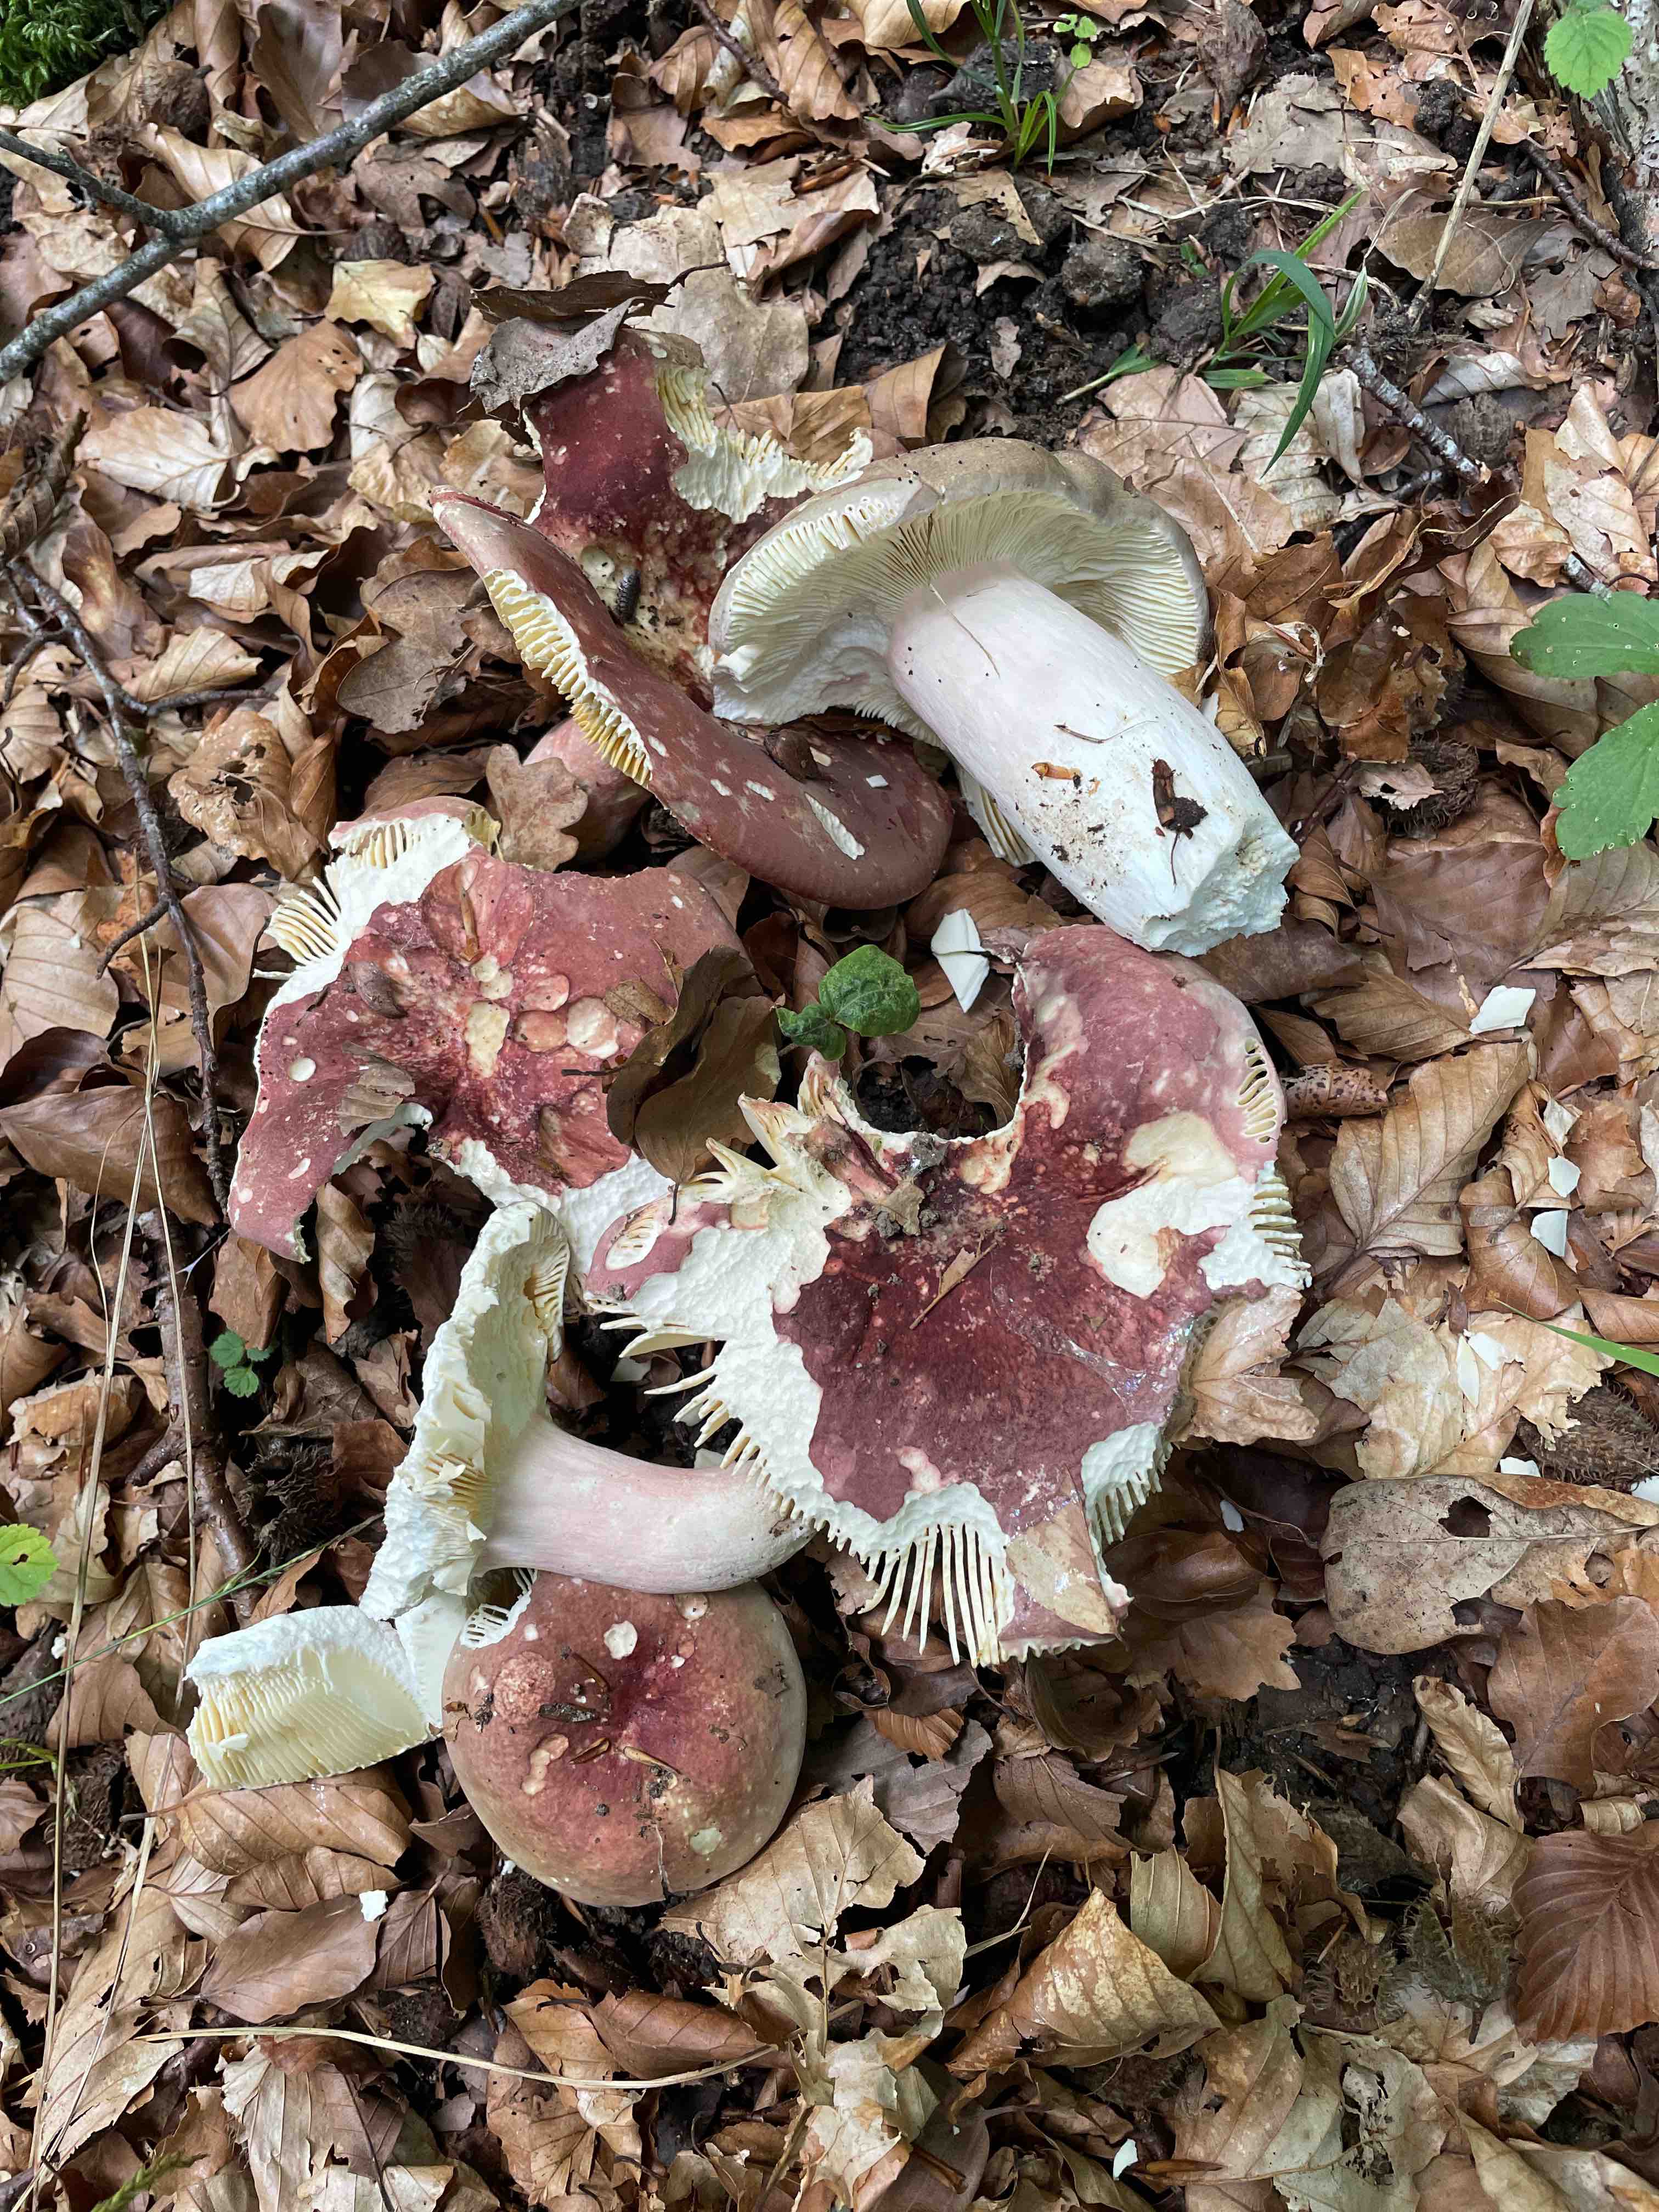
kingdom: Fungi
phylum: Basidiomycota
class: Agaricomycetes
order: Russulales
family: Russulaceae
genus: Russula
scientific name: Russula olivacea
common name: stor skørhat
